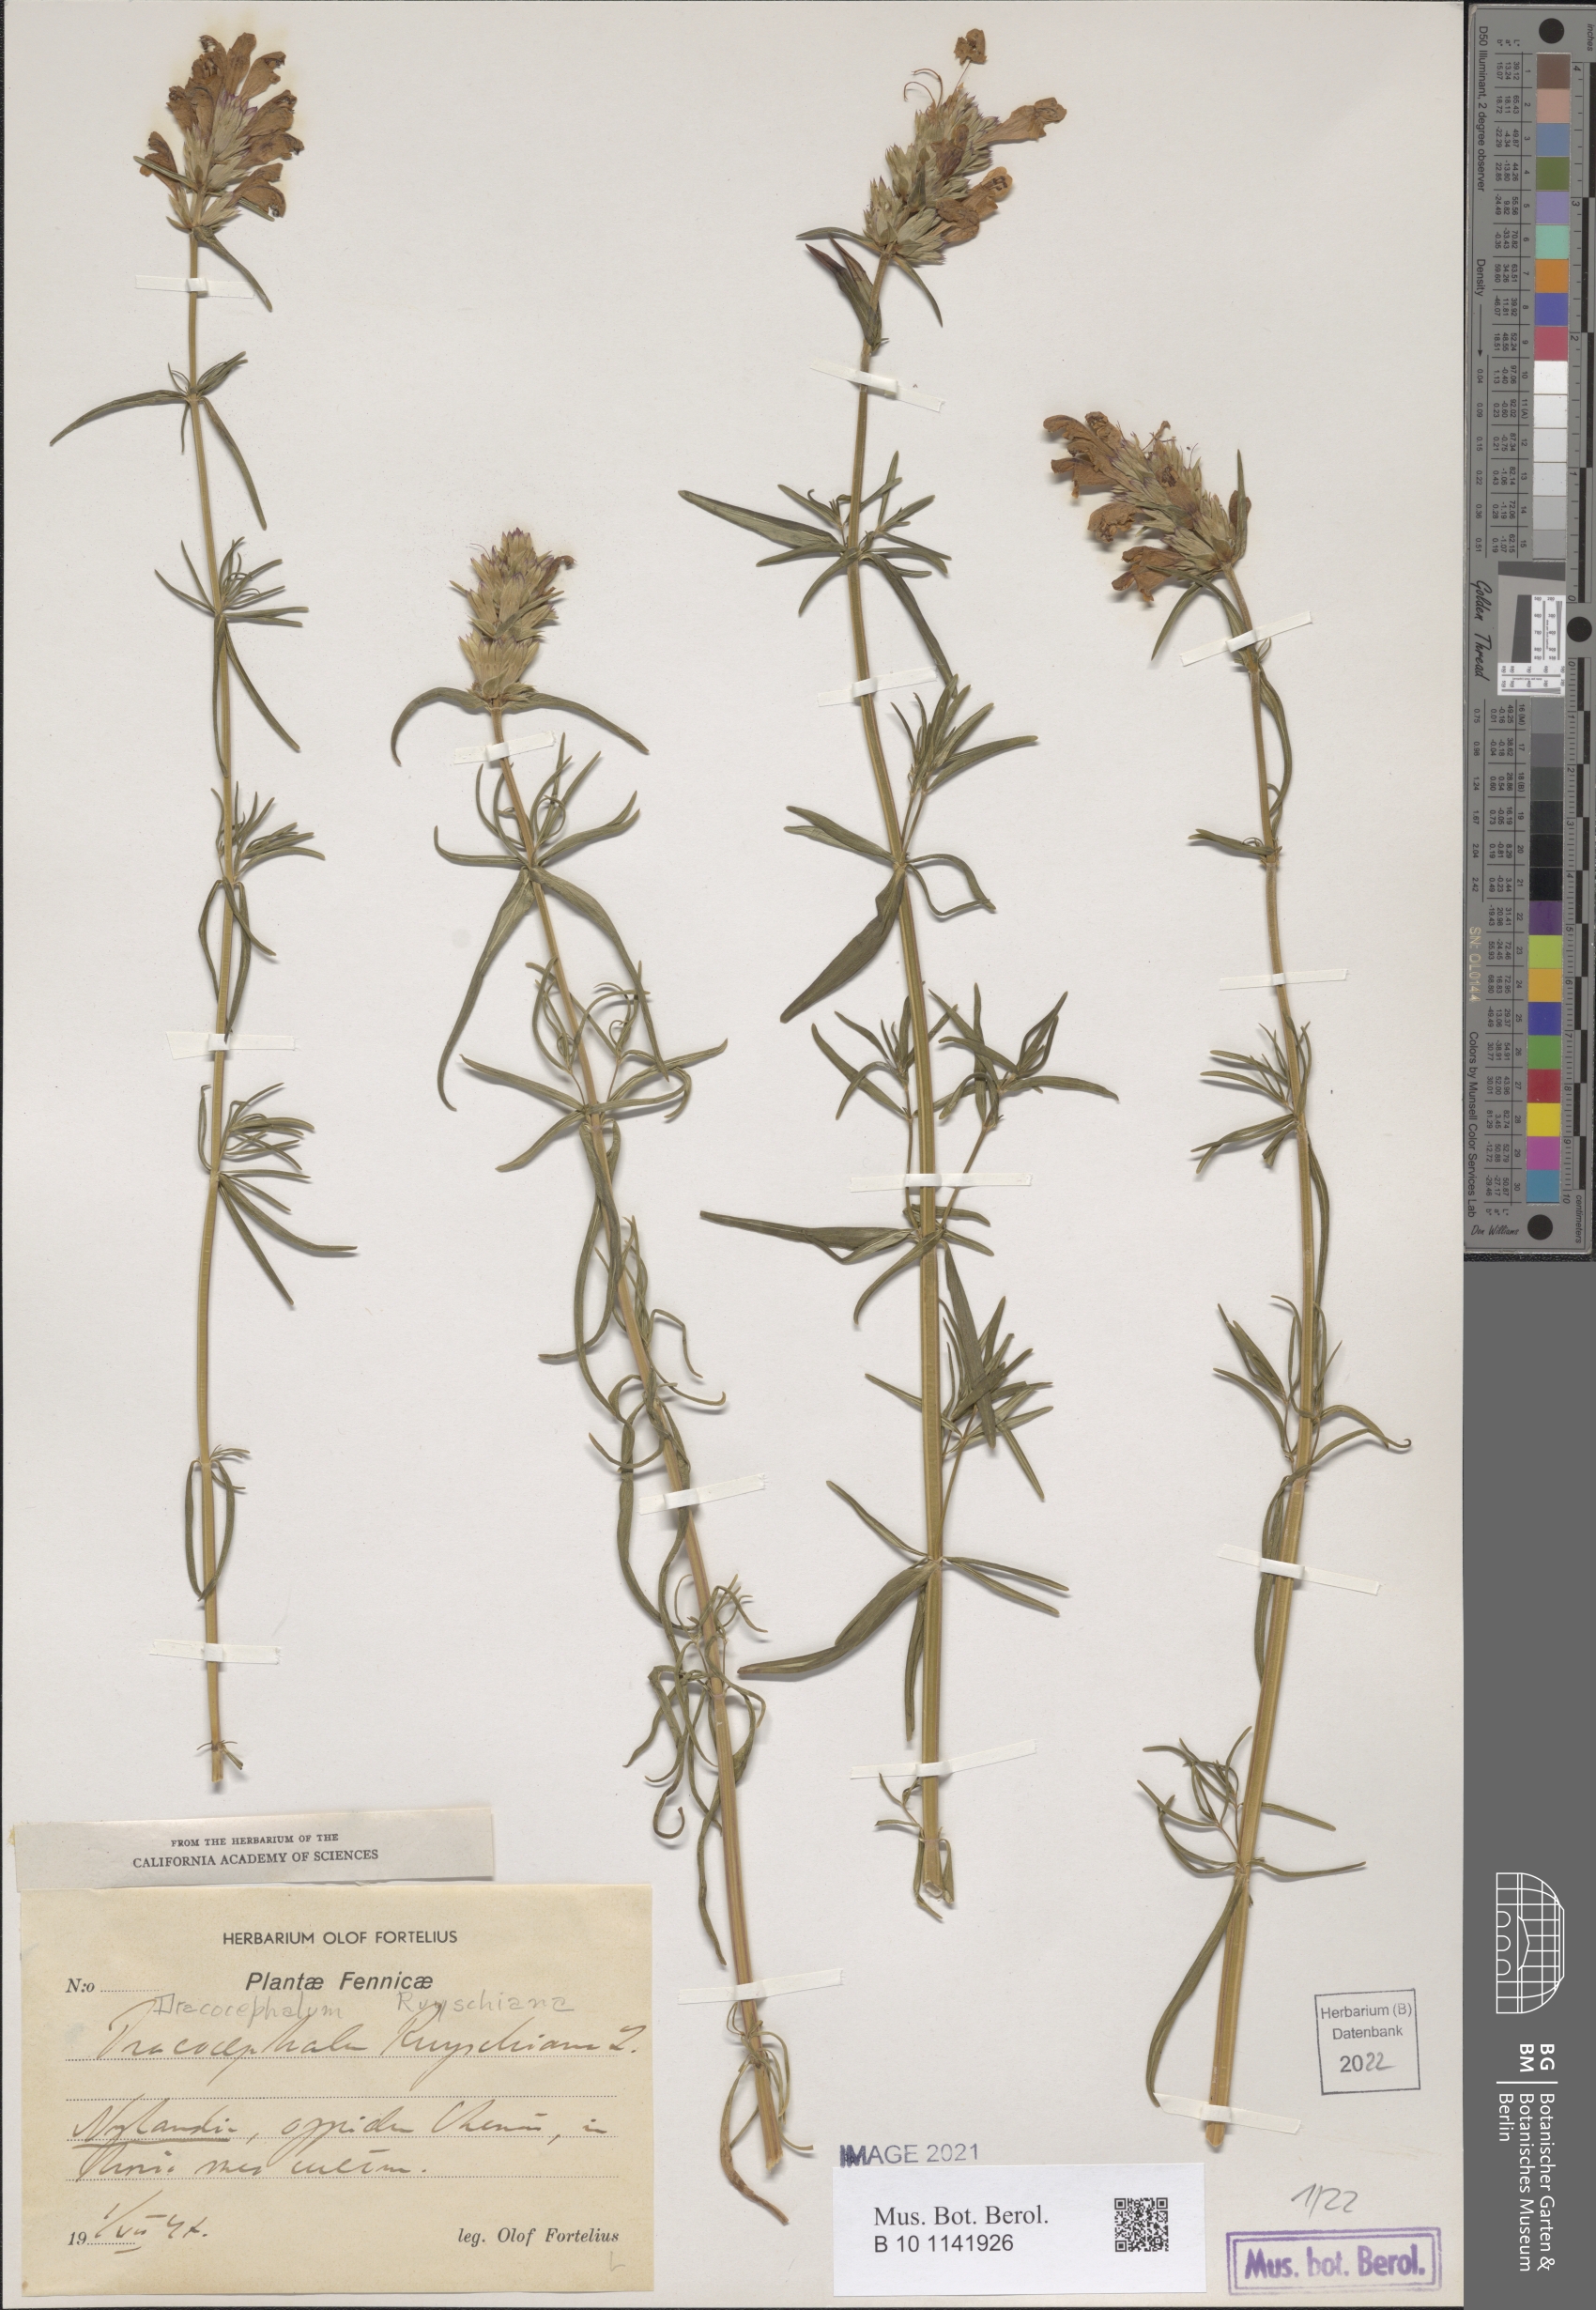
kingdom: Plantae
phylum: Tracheophyta
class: Magnoliopsida
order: Lamiales
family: Lamiaceae
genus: Dracocephalum
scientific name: Dracocephalum ruyschiana
